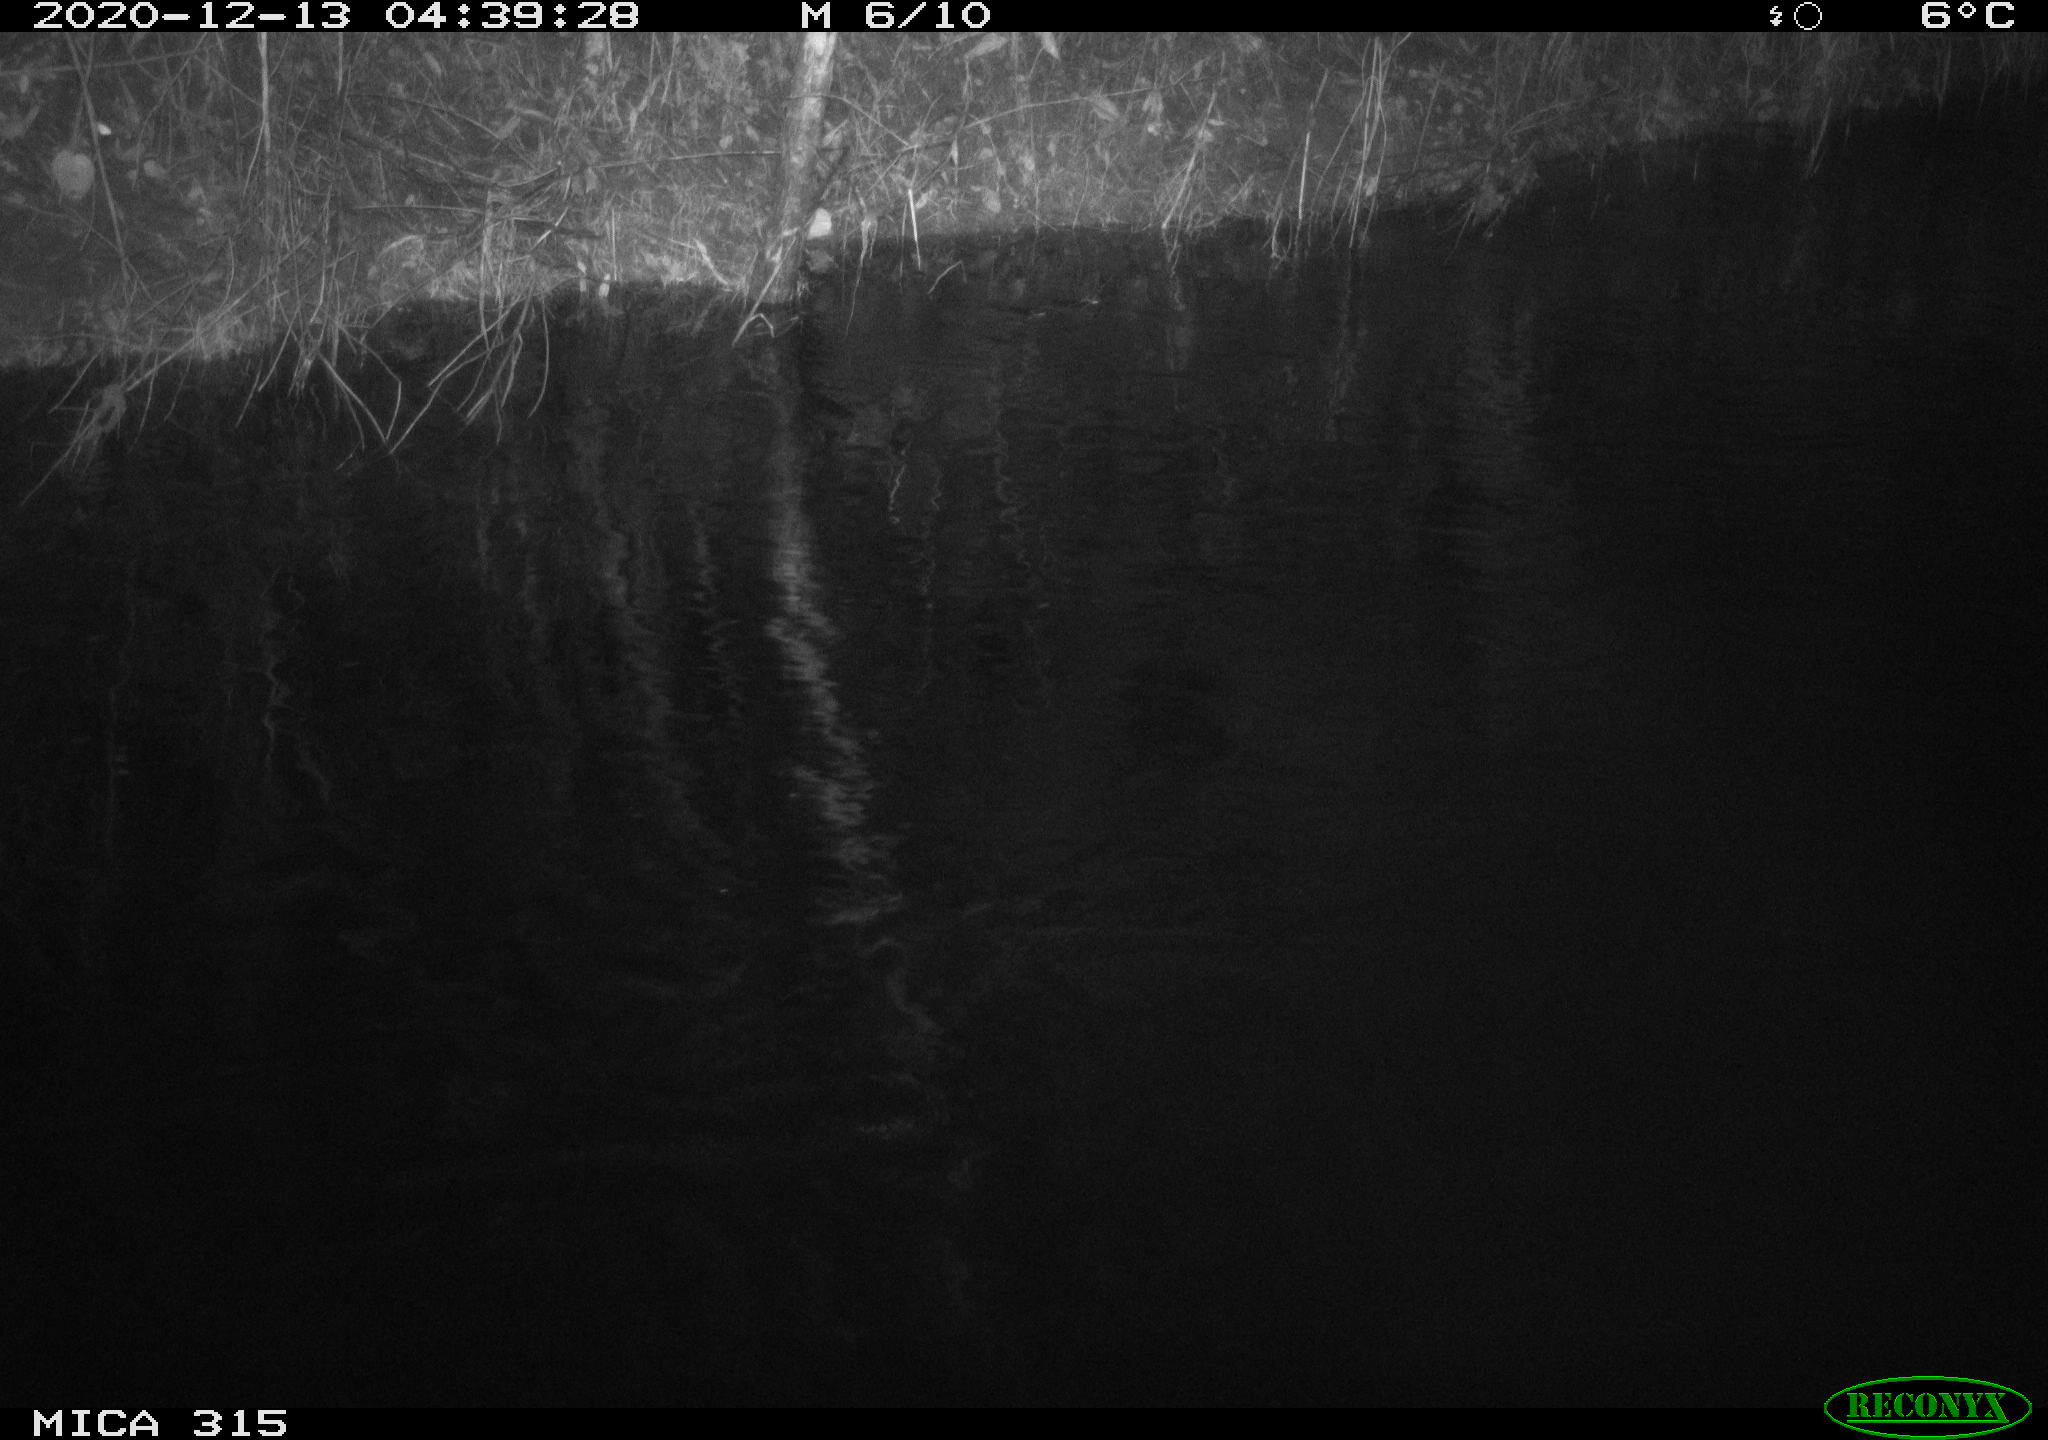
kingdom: Animalia
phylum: Chordata
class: Aves
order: Anseriformes
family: Anatidae
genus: Anas
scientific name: Anas platyrhynchos
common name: Mallard
